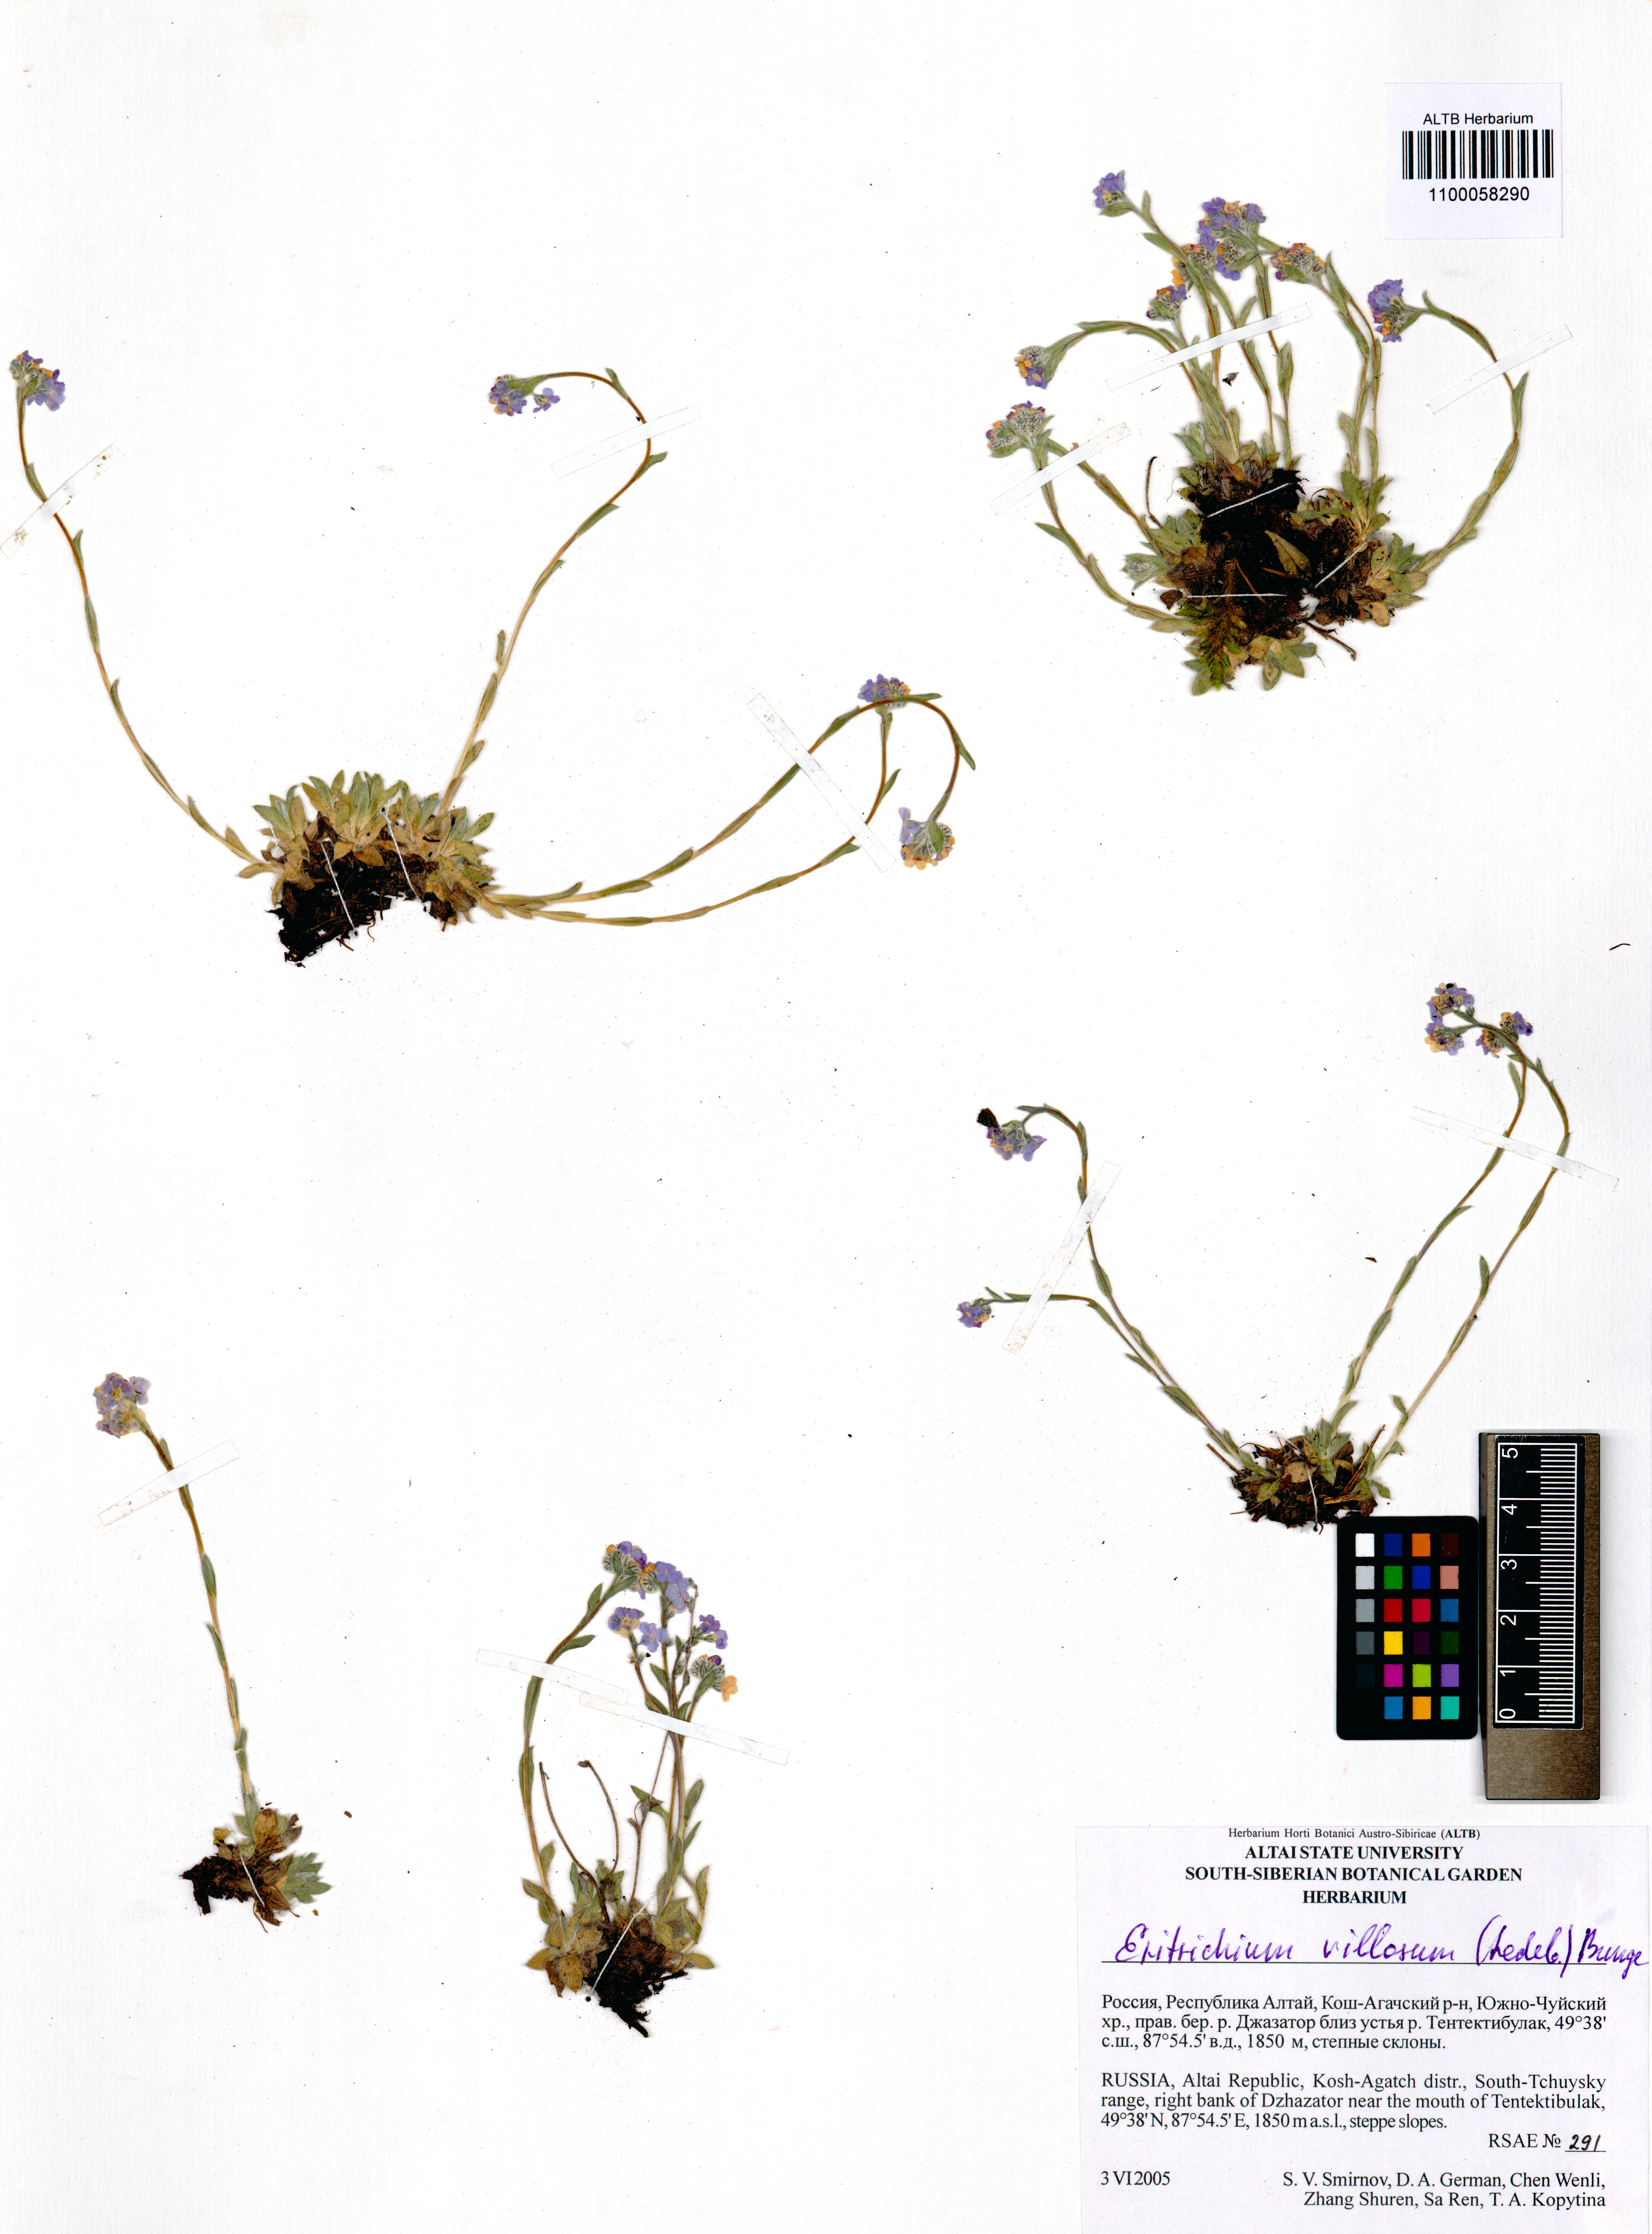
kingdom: Plantae
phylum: Tracheophyta
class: Magnoliopsida
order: Boraginales
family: Boraginaceae
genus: Eritrichium
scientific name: Eritrichium villosum
